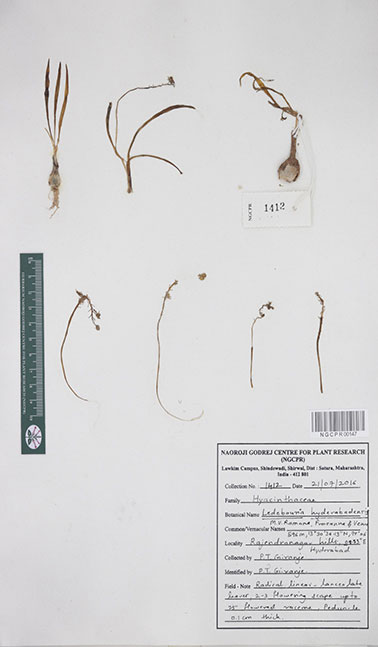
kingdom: Plantae
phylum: Tracheophyta
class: Liliopsida
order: Asparagales
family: Asparagaceae
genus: Ledebouria
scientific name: Ledebouria hyderabadensis
